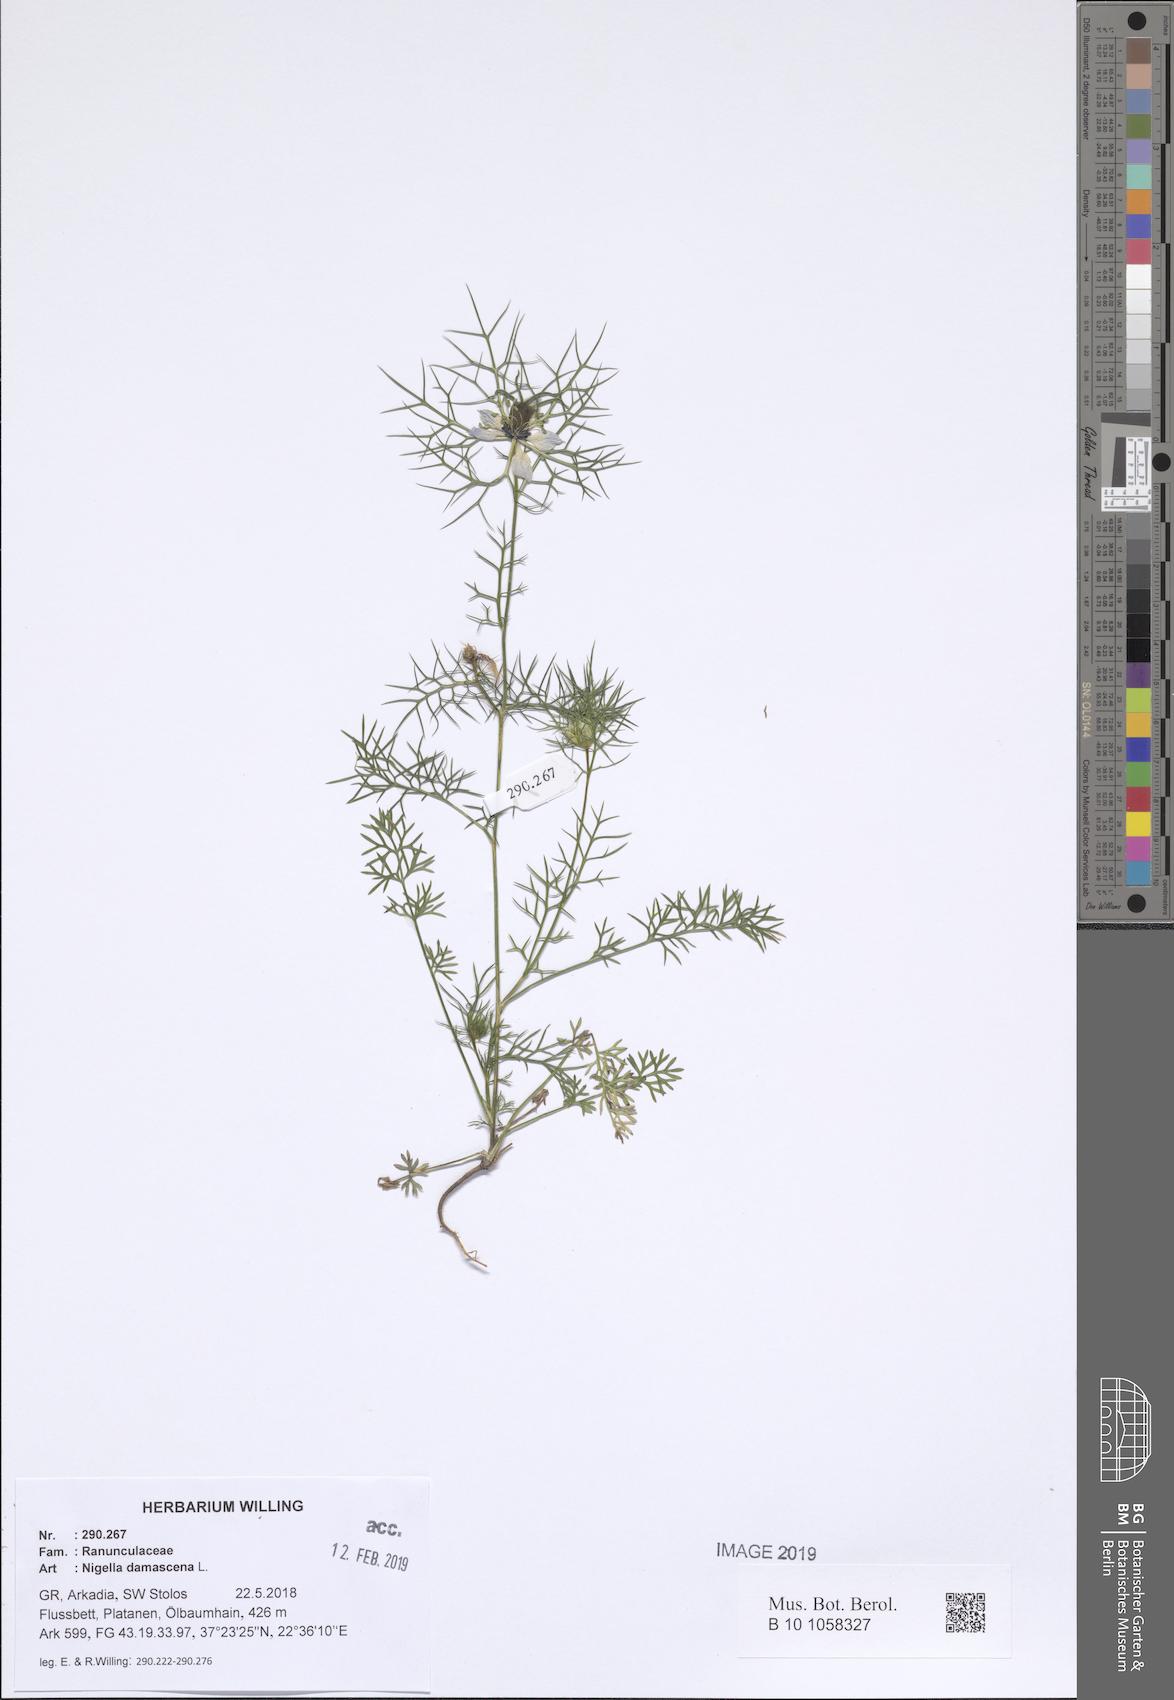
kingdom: Plantae
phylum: Tracheophyta
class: Magnoliopsida
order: Ranunculales
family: Ranunculaceae
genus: Nigella
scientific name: Nigella damascena
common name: Love-in-a-mist
